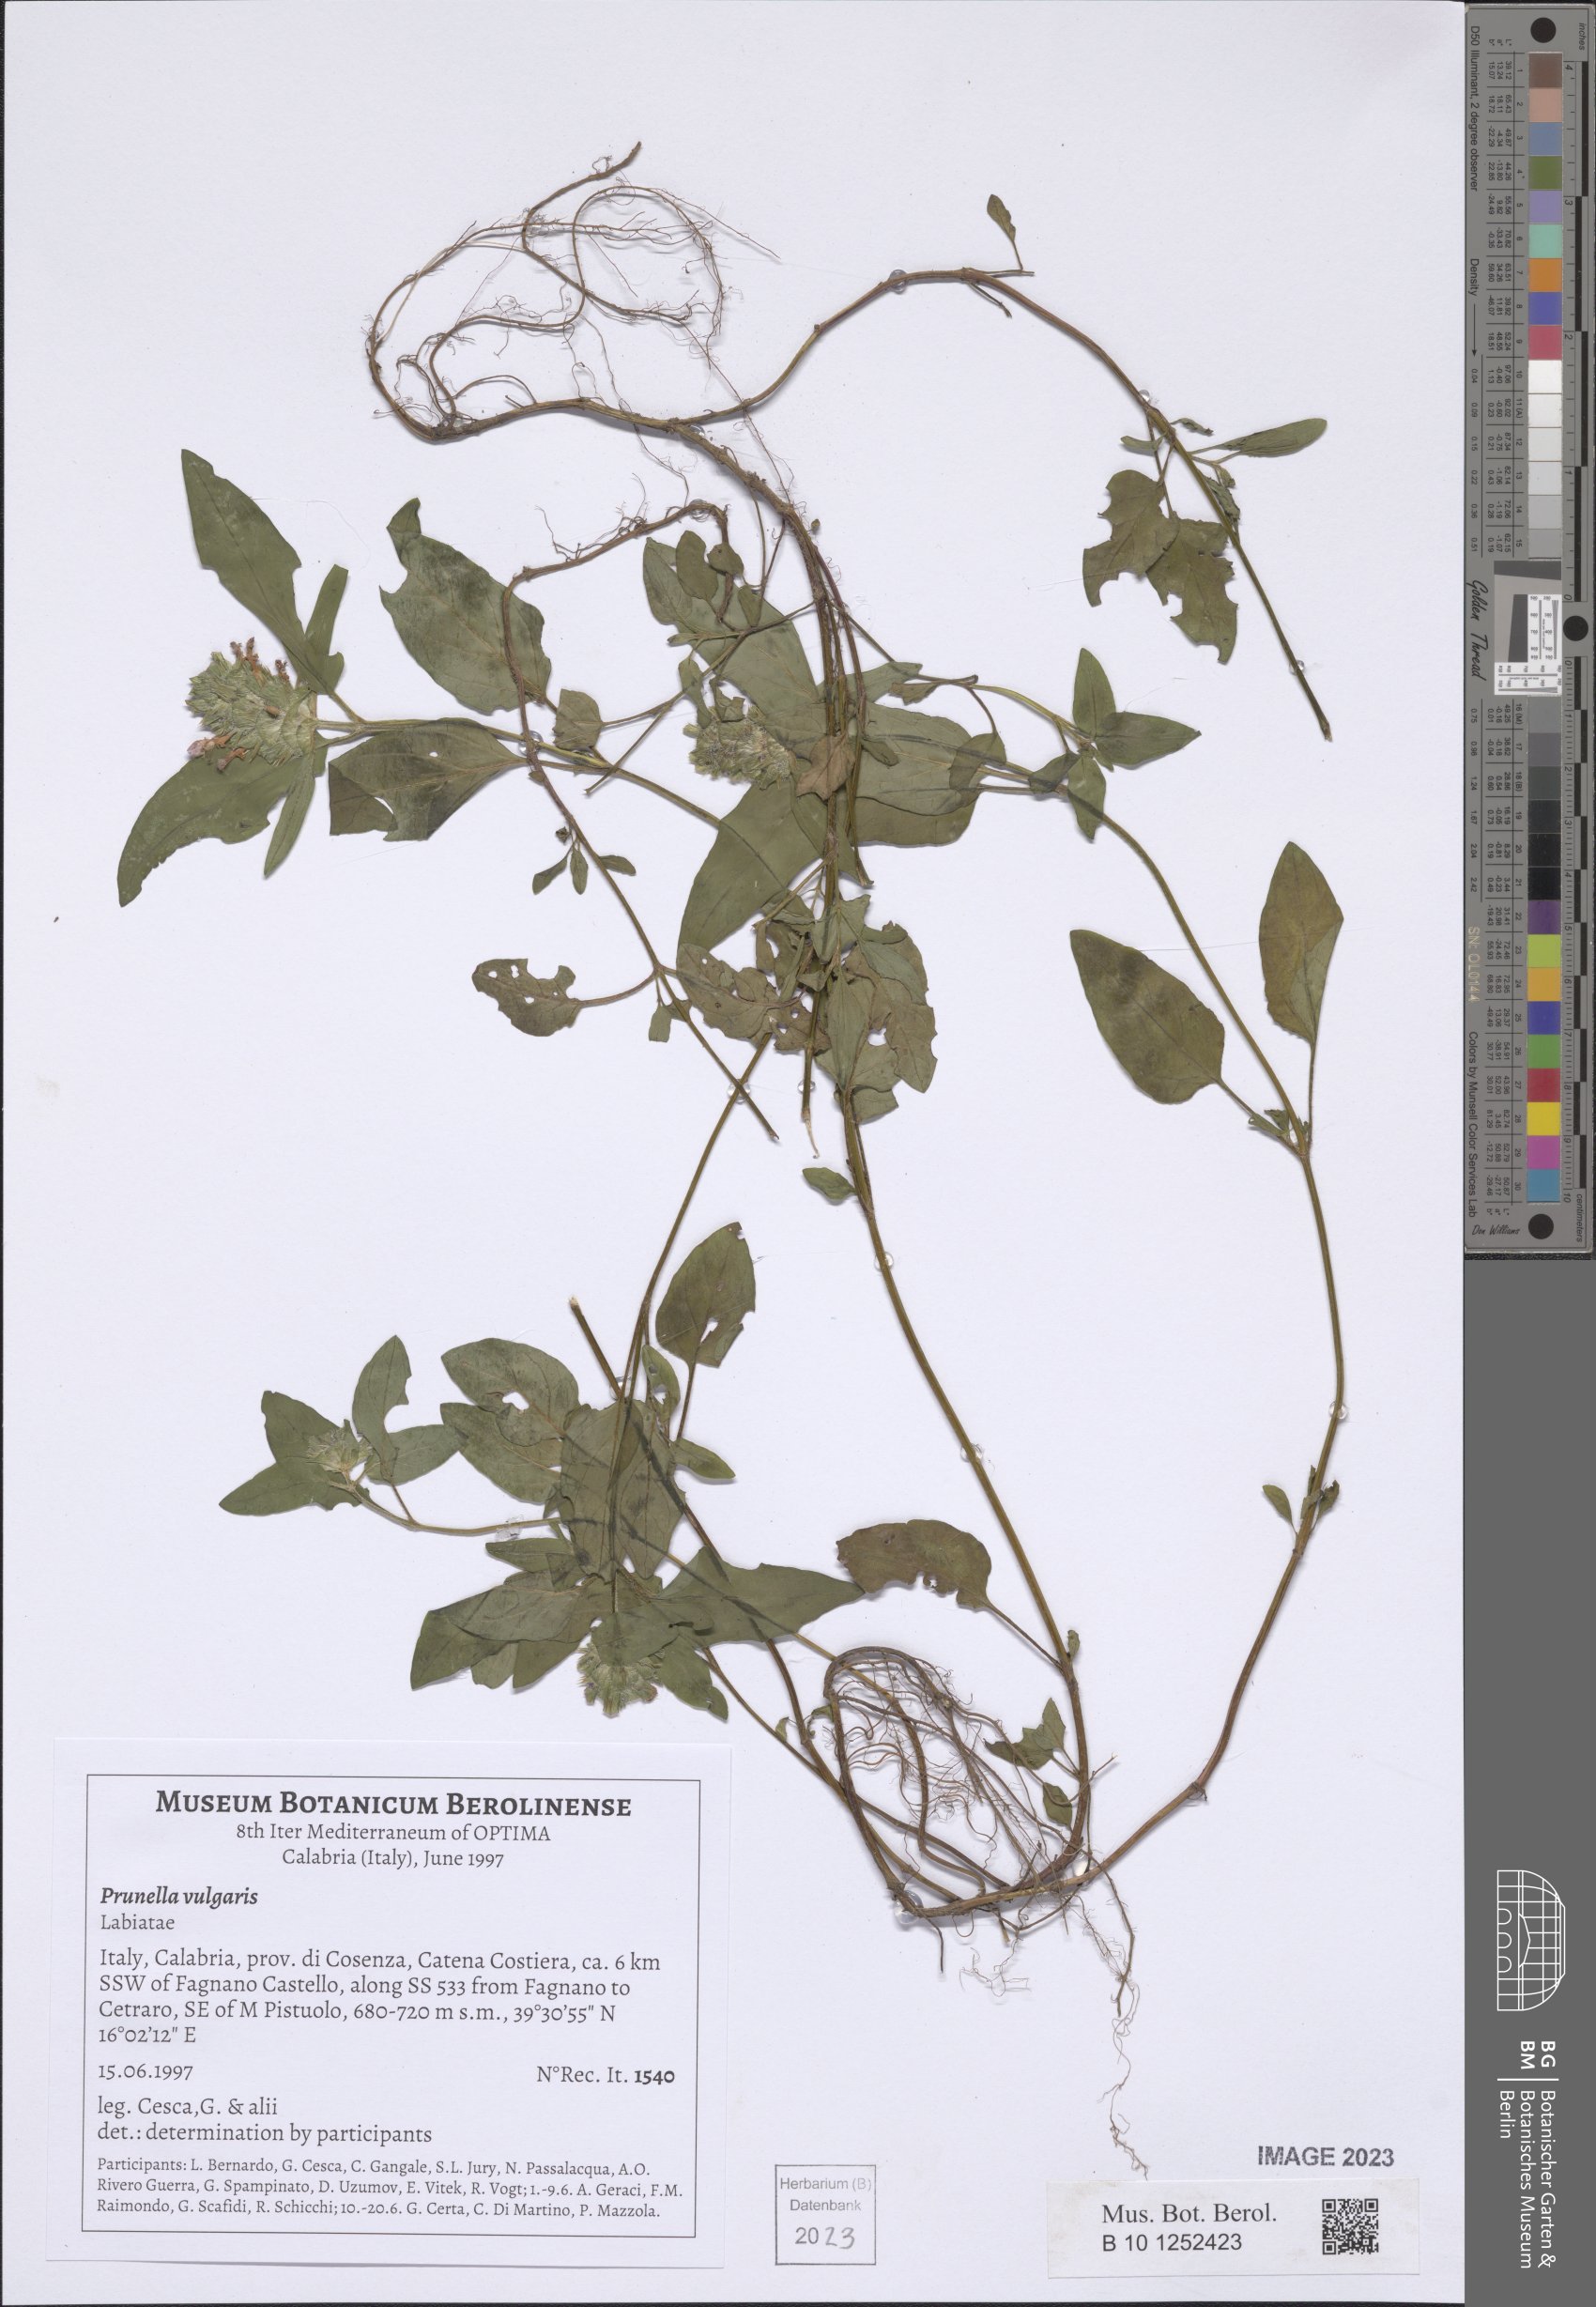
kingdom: Plantae
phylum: Tracheophyta
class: Magnoliopsida
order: Lamiales
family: Lamiaceae
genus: Prunella
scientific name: Prunella vulgaris
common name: Heal-all
